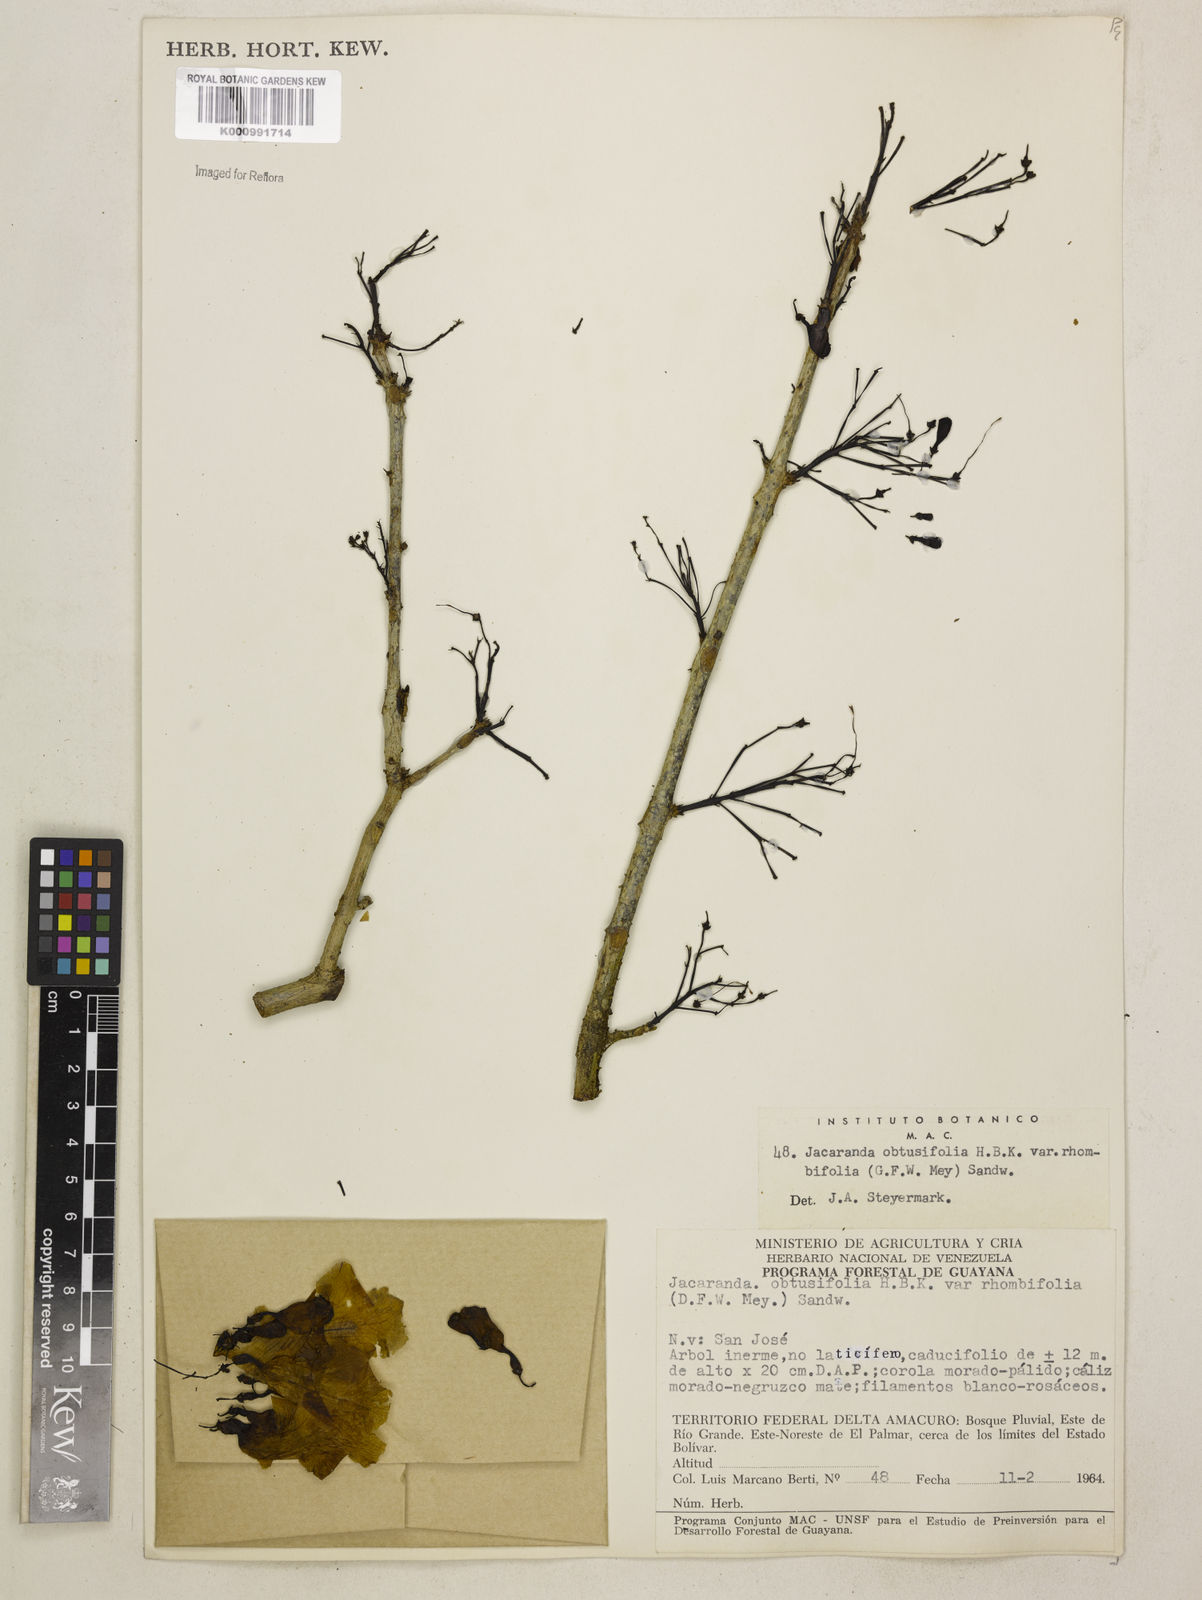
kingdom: Plantae
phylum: Tracheophyta
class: Magnoliopsida
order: Lamiales
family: Bignoniaceae
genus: Jacaranda
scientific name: Jacaranda obtusifolia
